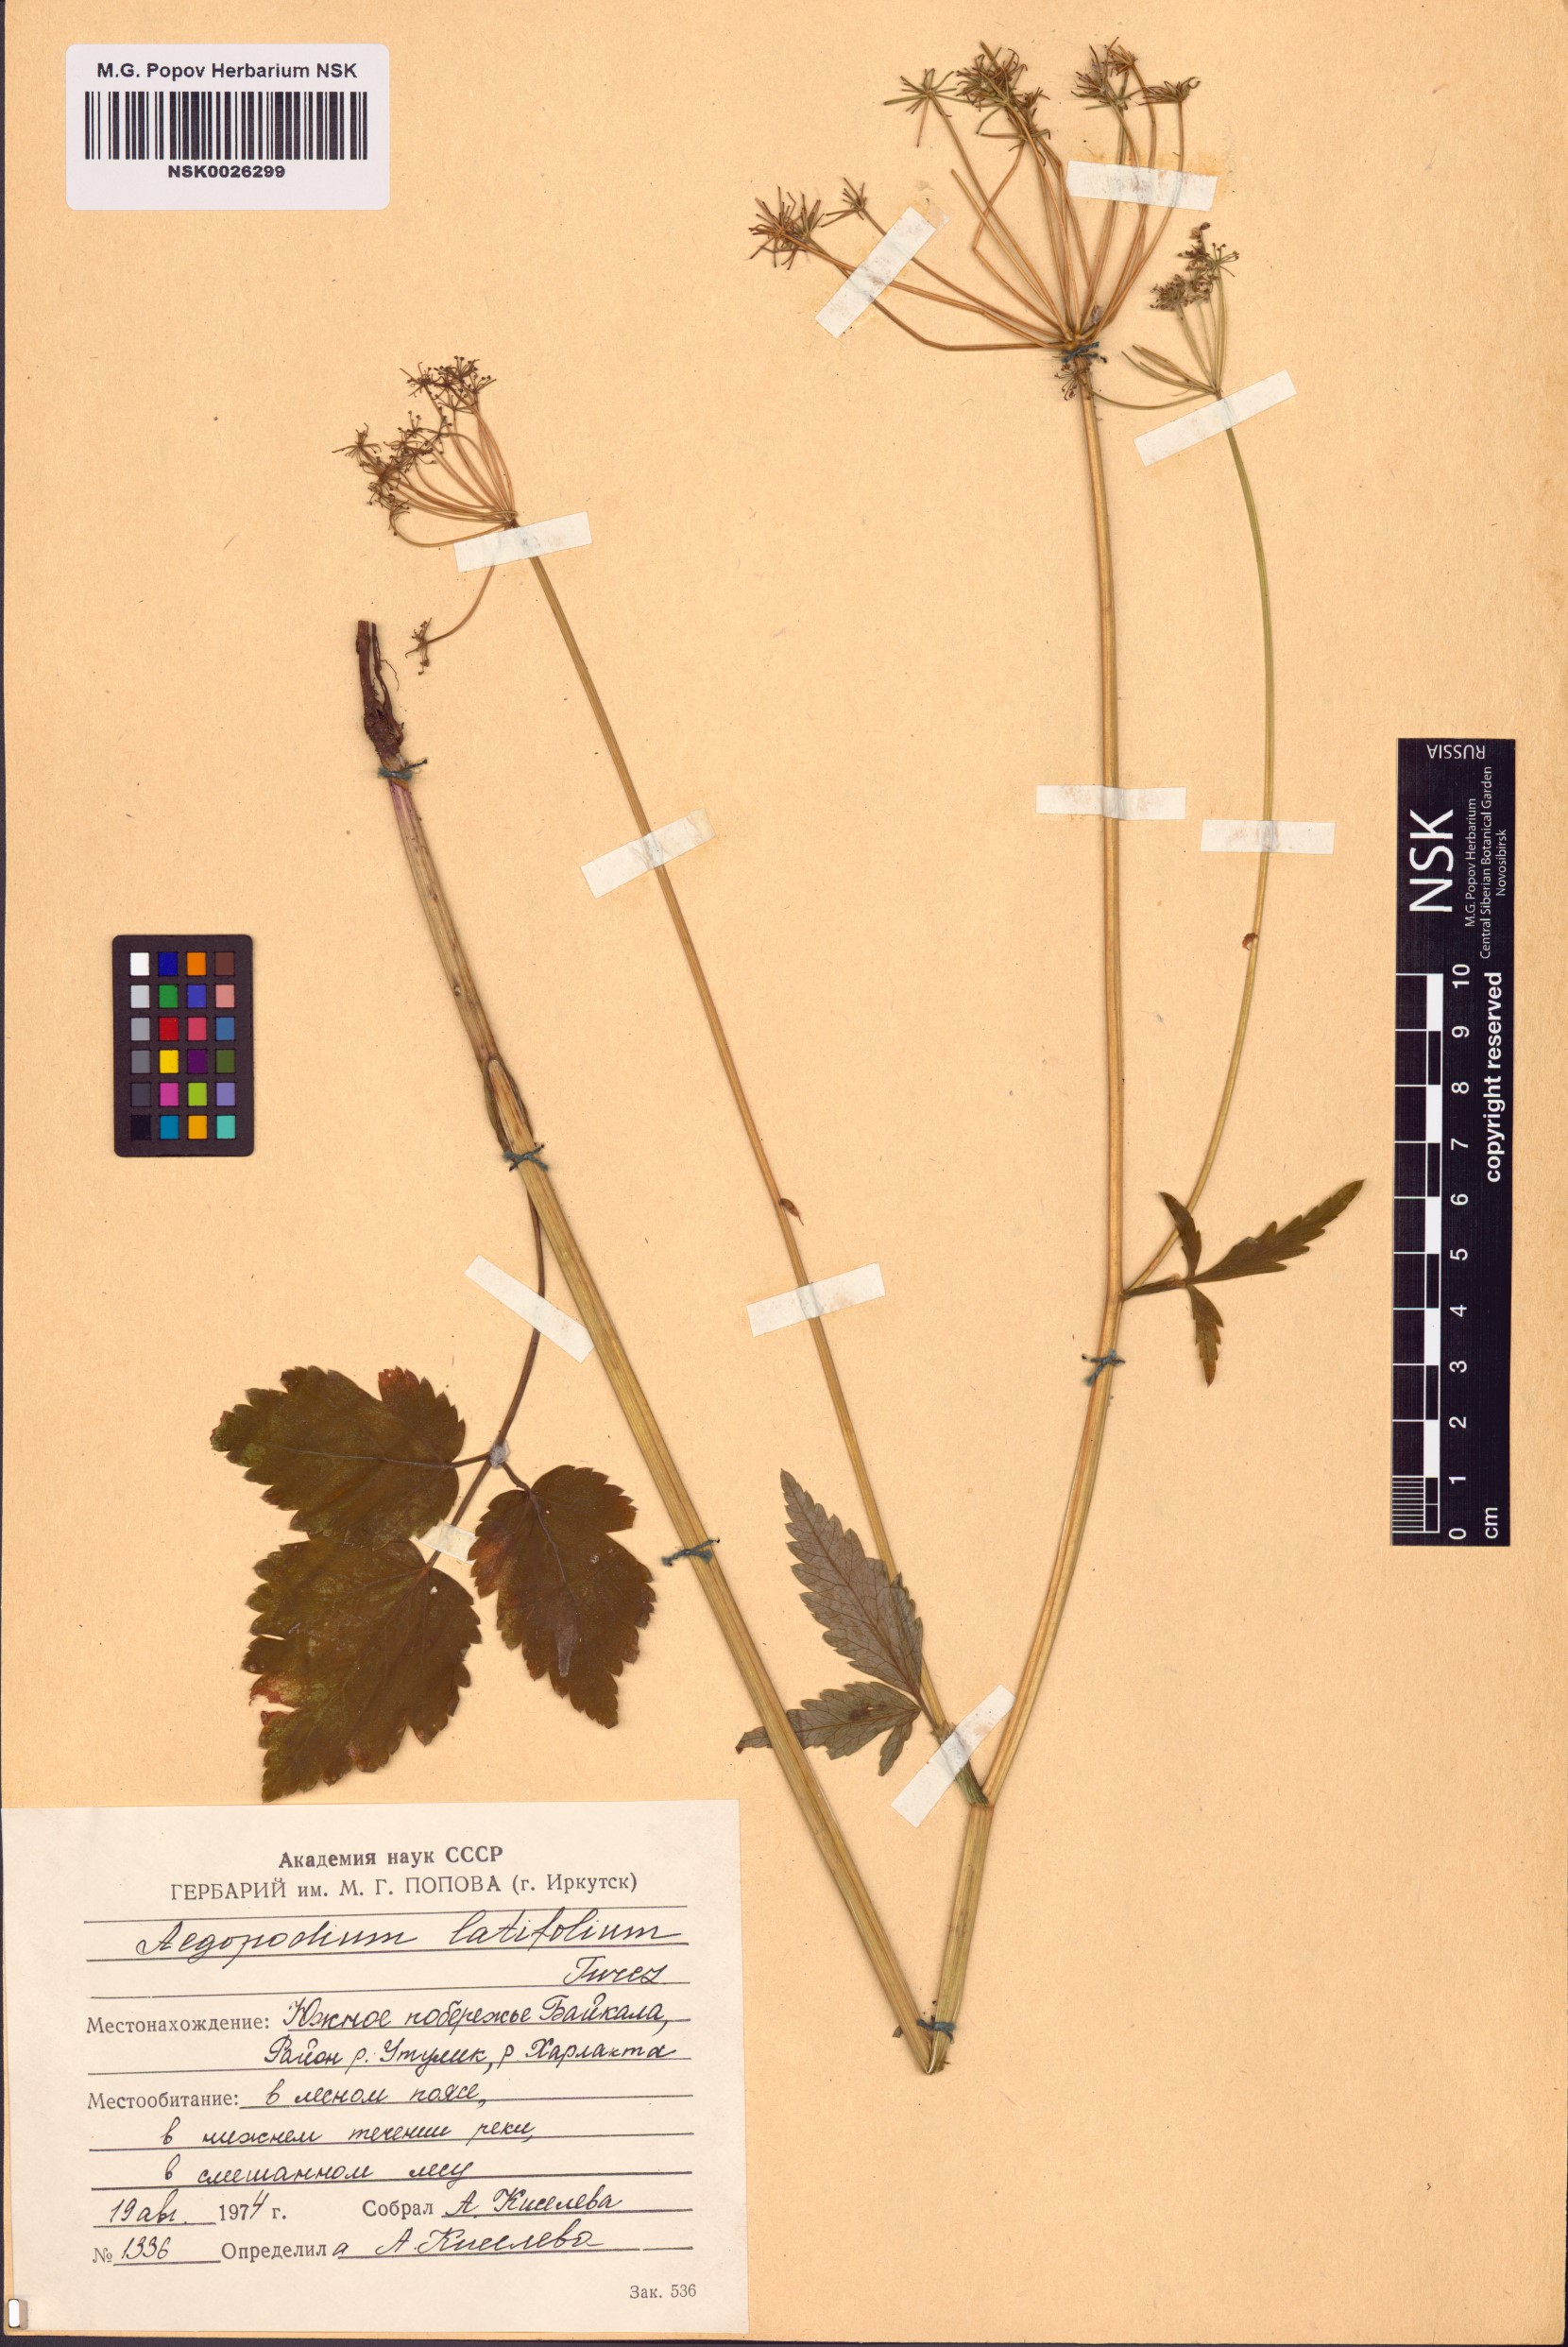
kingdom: Plantae
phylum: Tracheophyta
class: Magnoliopsida
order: Apiales
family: Apiaceae
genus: Aegopodium
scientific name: Aegopodium latifolium
